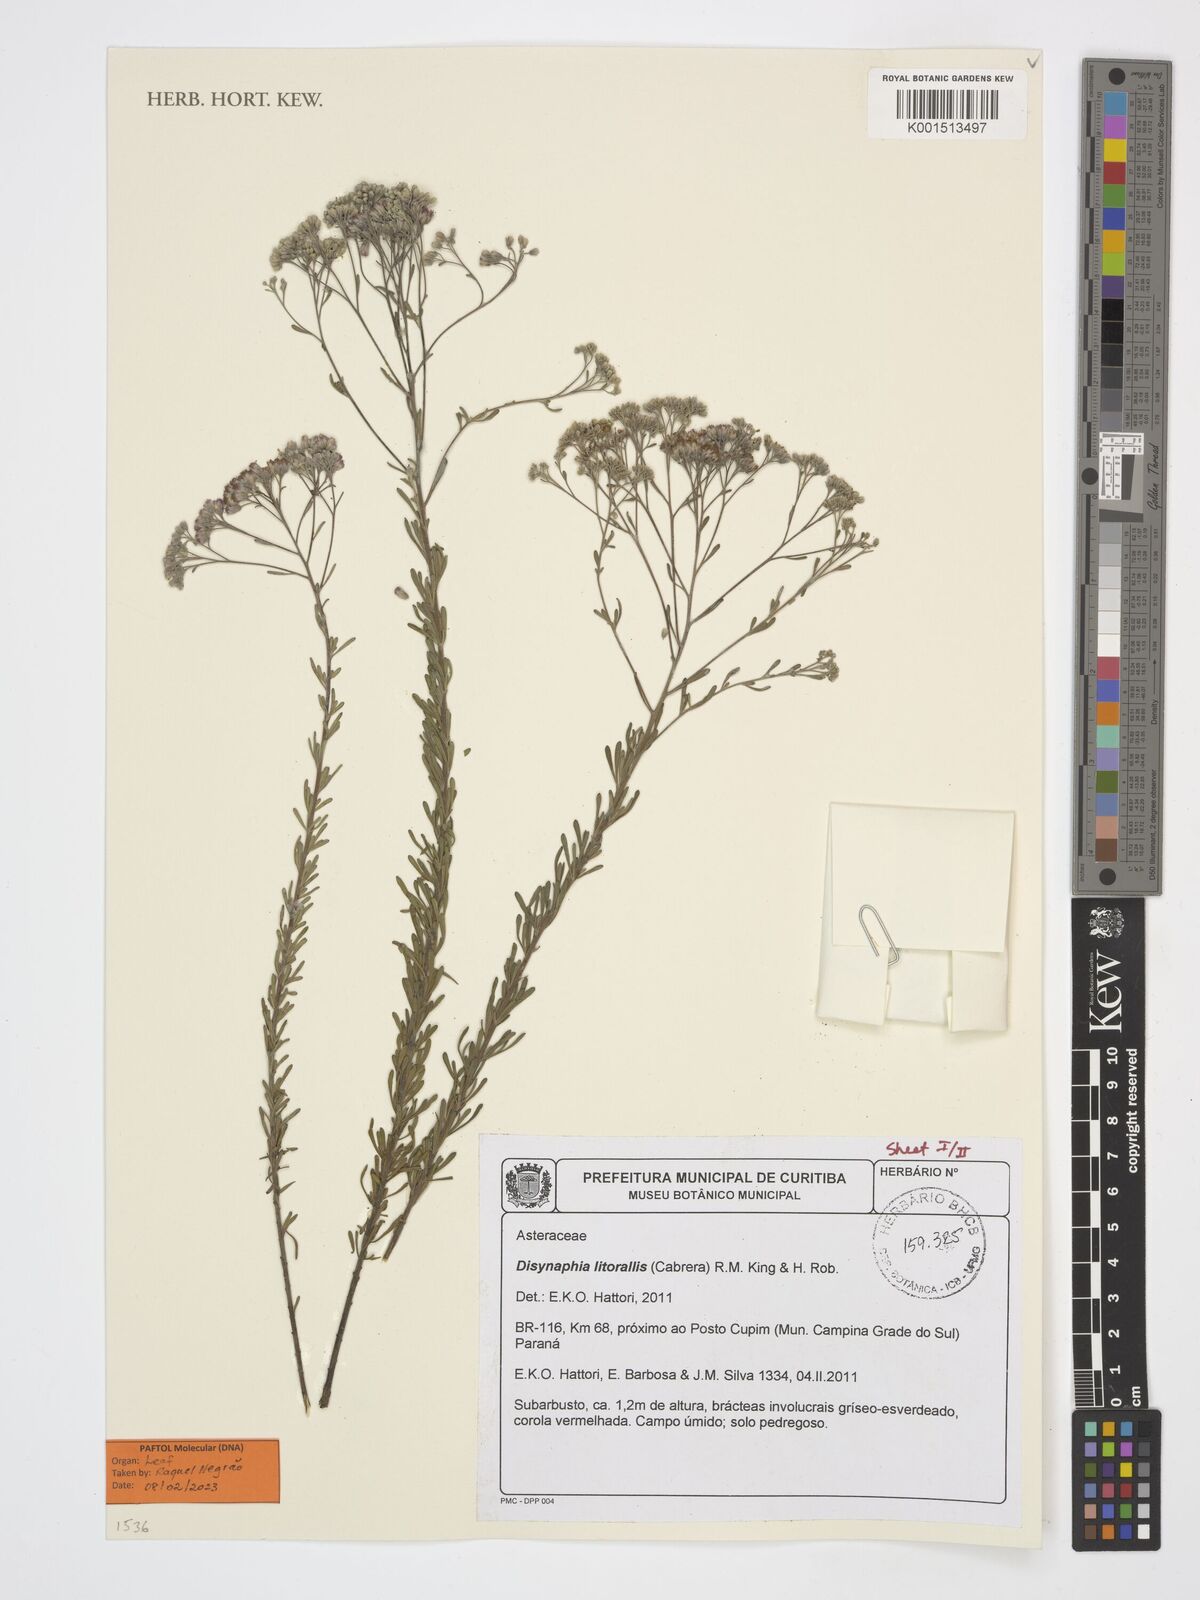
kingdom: Plantae
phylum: Tracheophyta
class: Magnoliopsida
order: Asterales
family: Asteraceae
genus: Disynaphia
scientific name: Disynaphia littoralis
